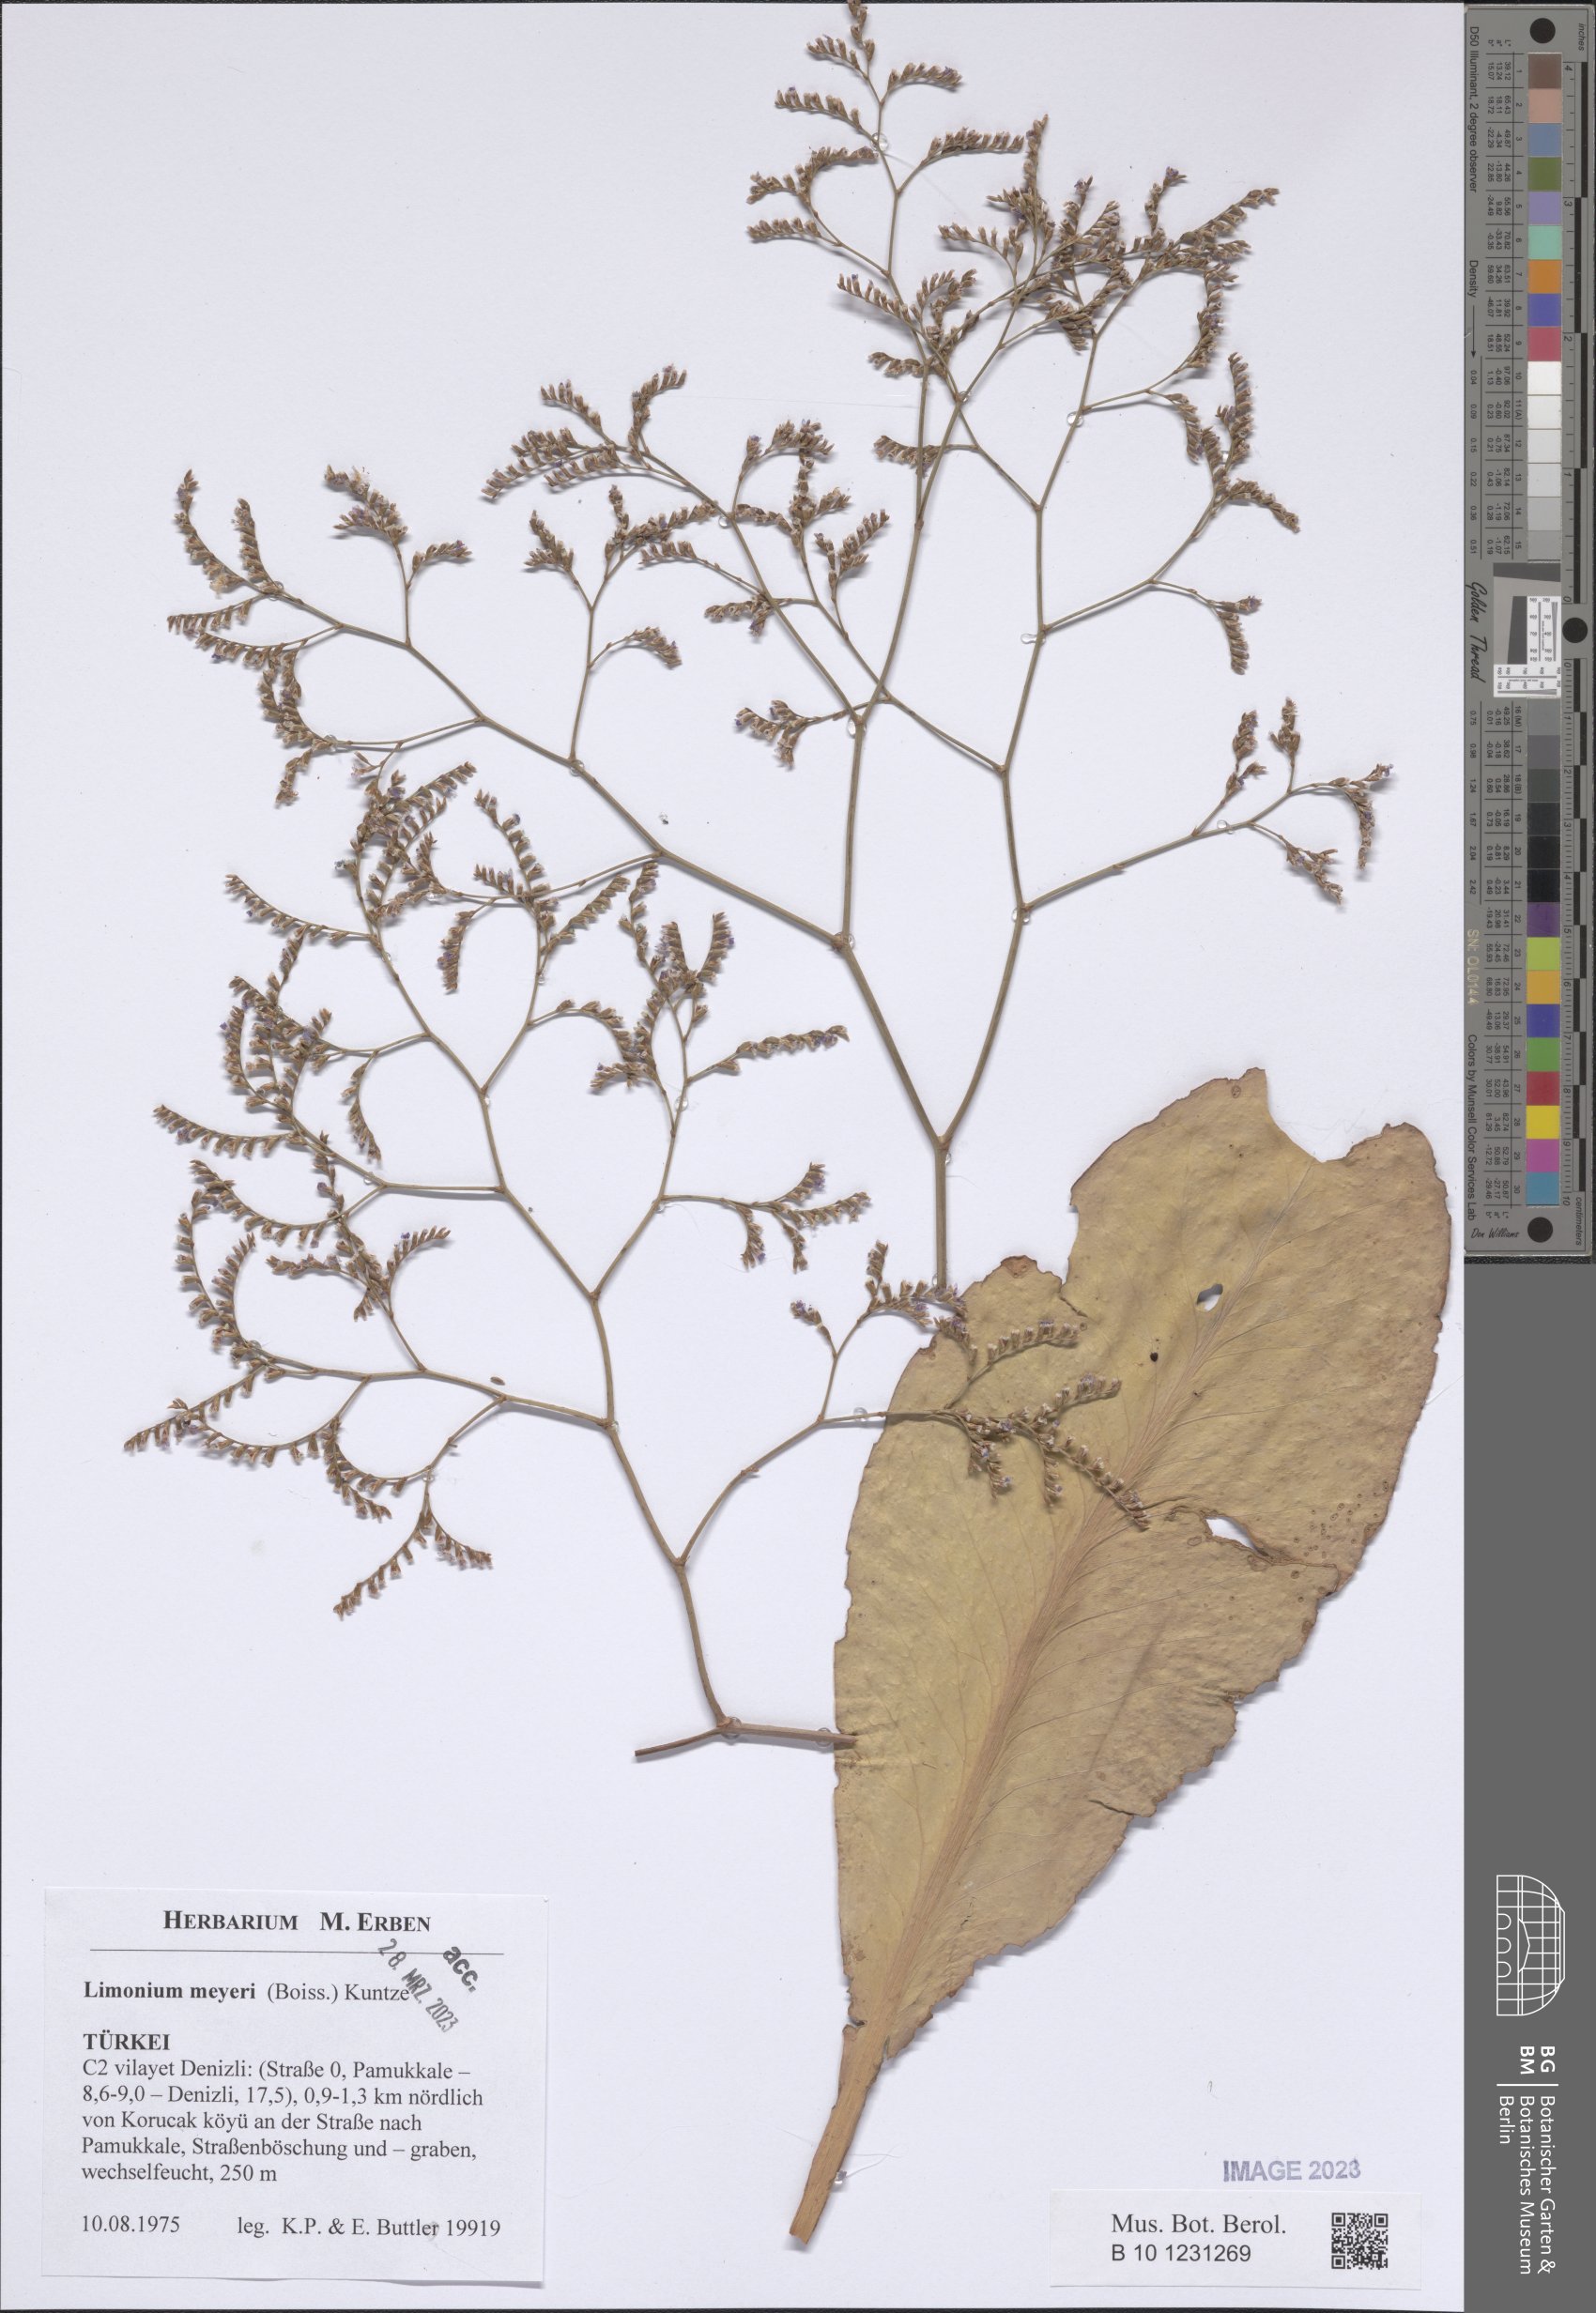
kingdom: Plantae
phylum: Tracheophyta
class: Magnoliopsida
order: Caryophyllales
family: Plumbaginaceae
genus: Limonium
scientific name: Limonium scoparium
